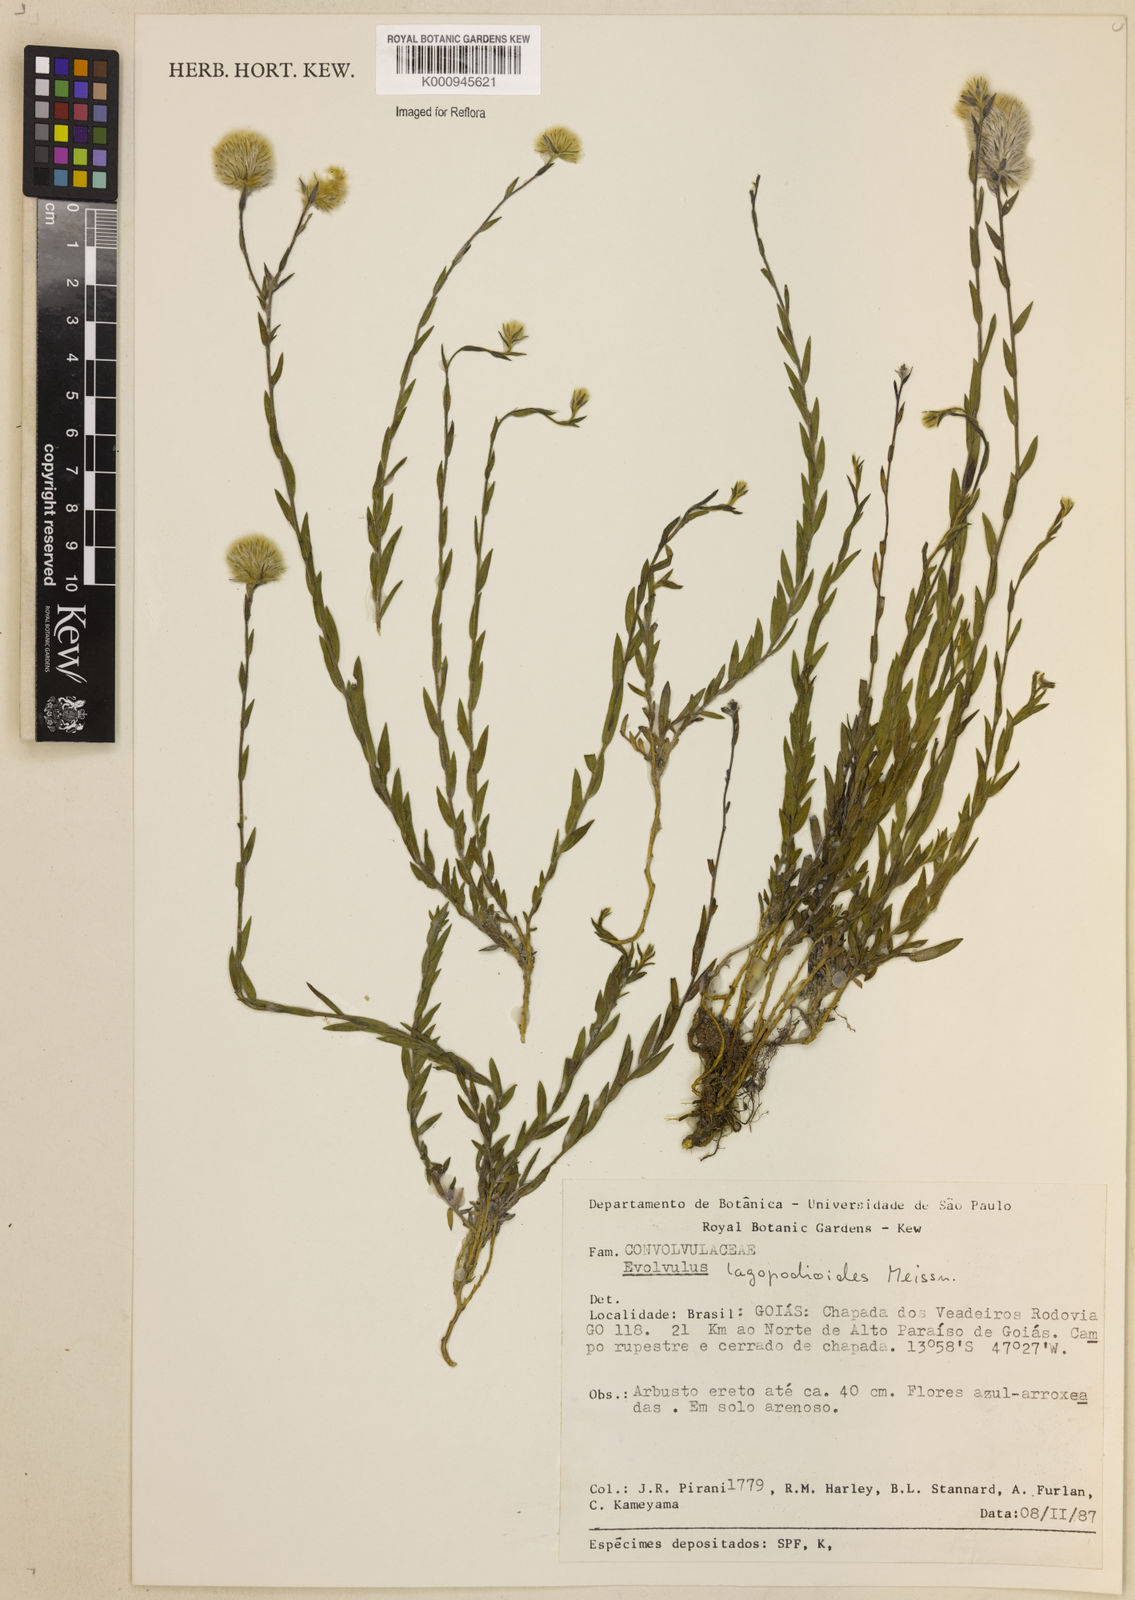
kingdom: Plantae
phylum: Tracheophyta
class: Magnoliopsida
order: Solanales
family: Convolvulaceae
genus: Evolvulus
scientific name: Evolvulus lagopodioides
